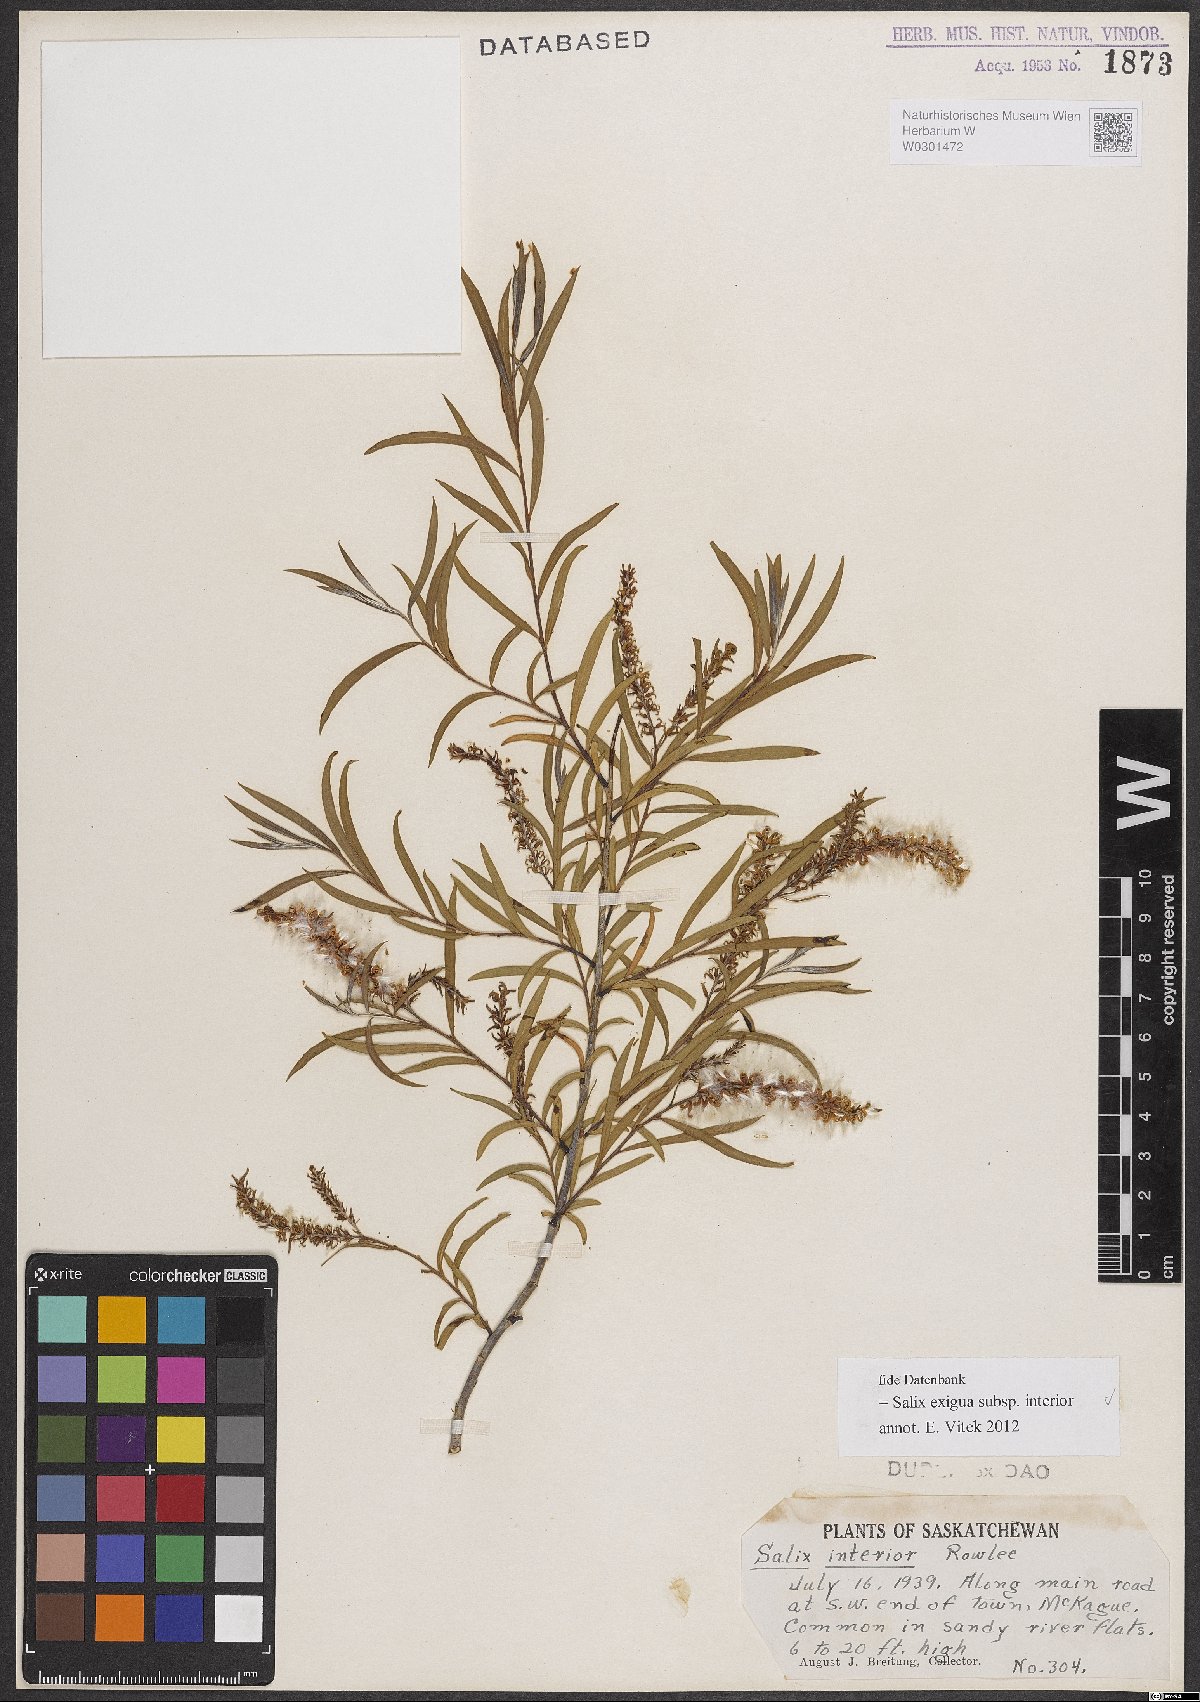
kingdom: Plantae
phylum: Tracheophyta
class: Magnoliopsida
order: Malpighiales
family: Salicaceae
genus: Salix
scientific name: Salix interior
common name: Sandbar willow
